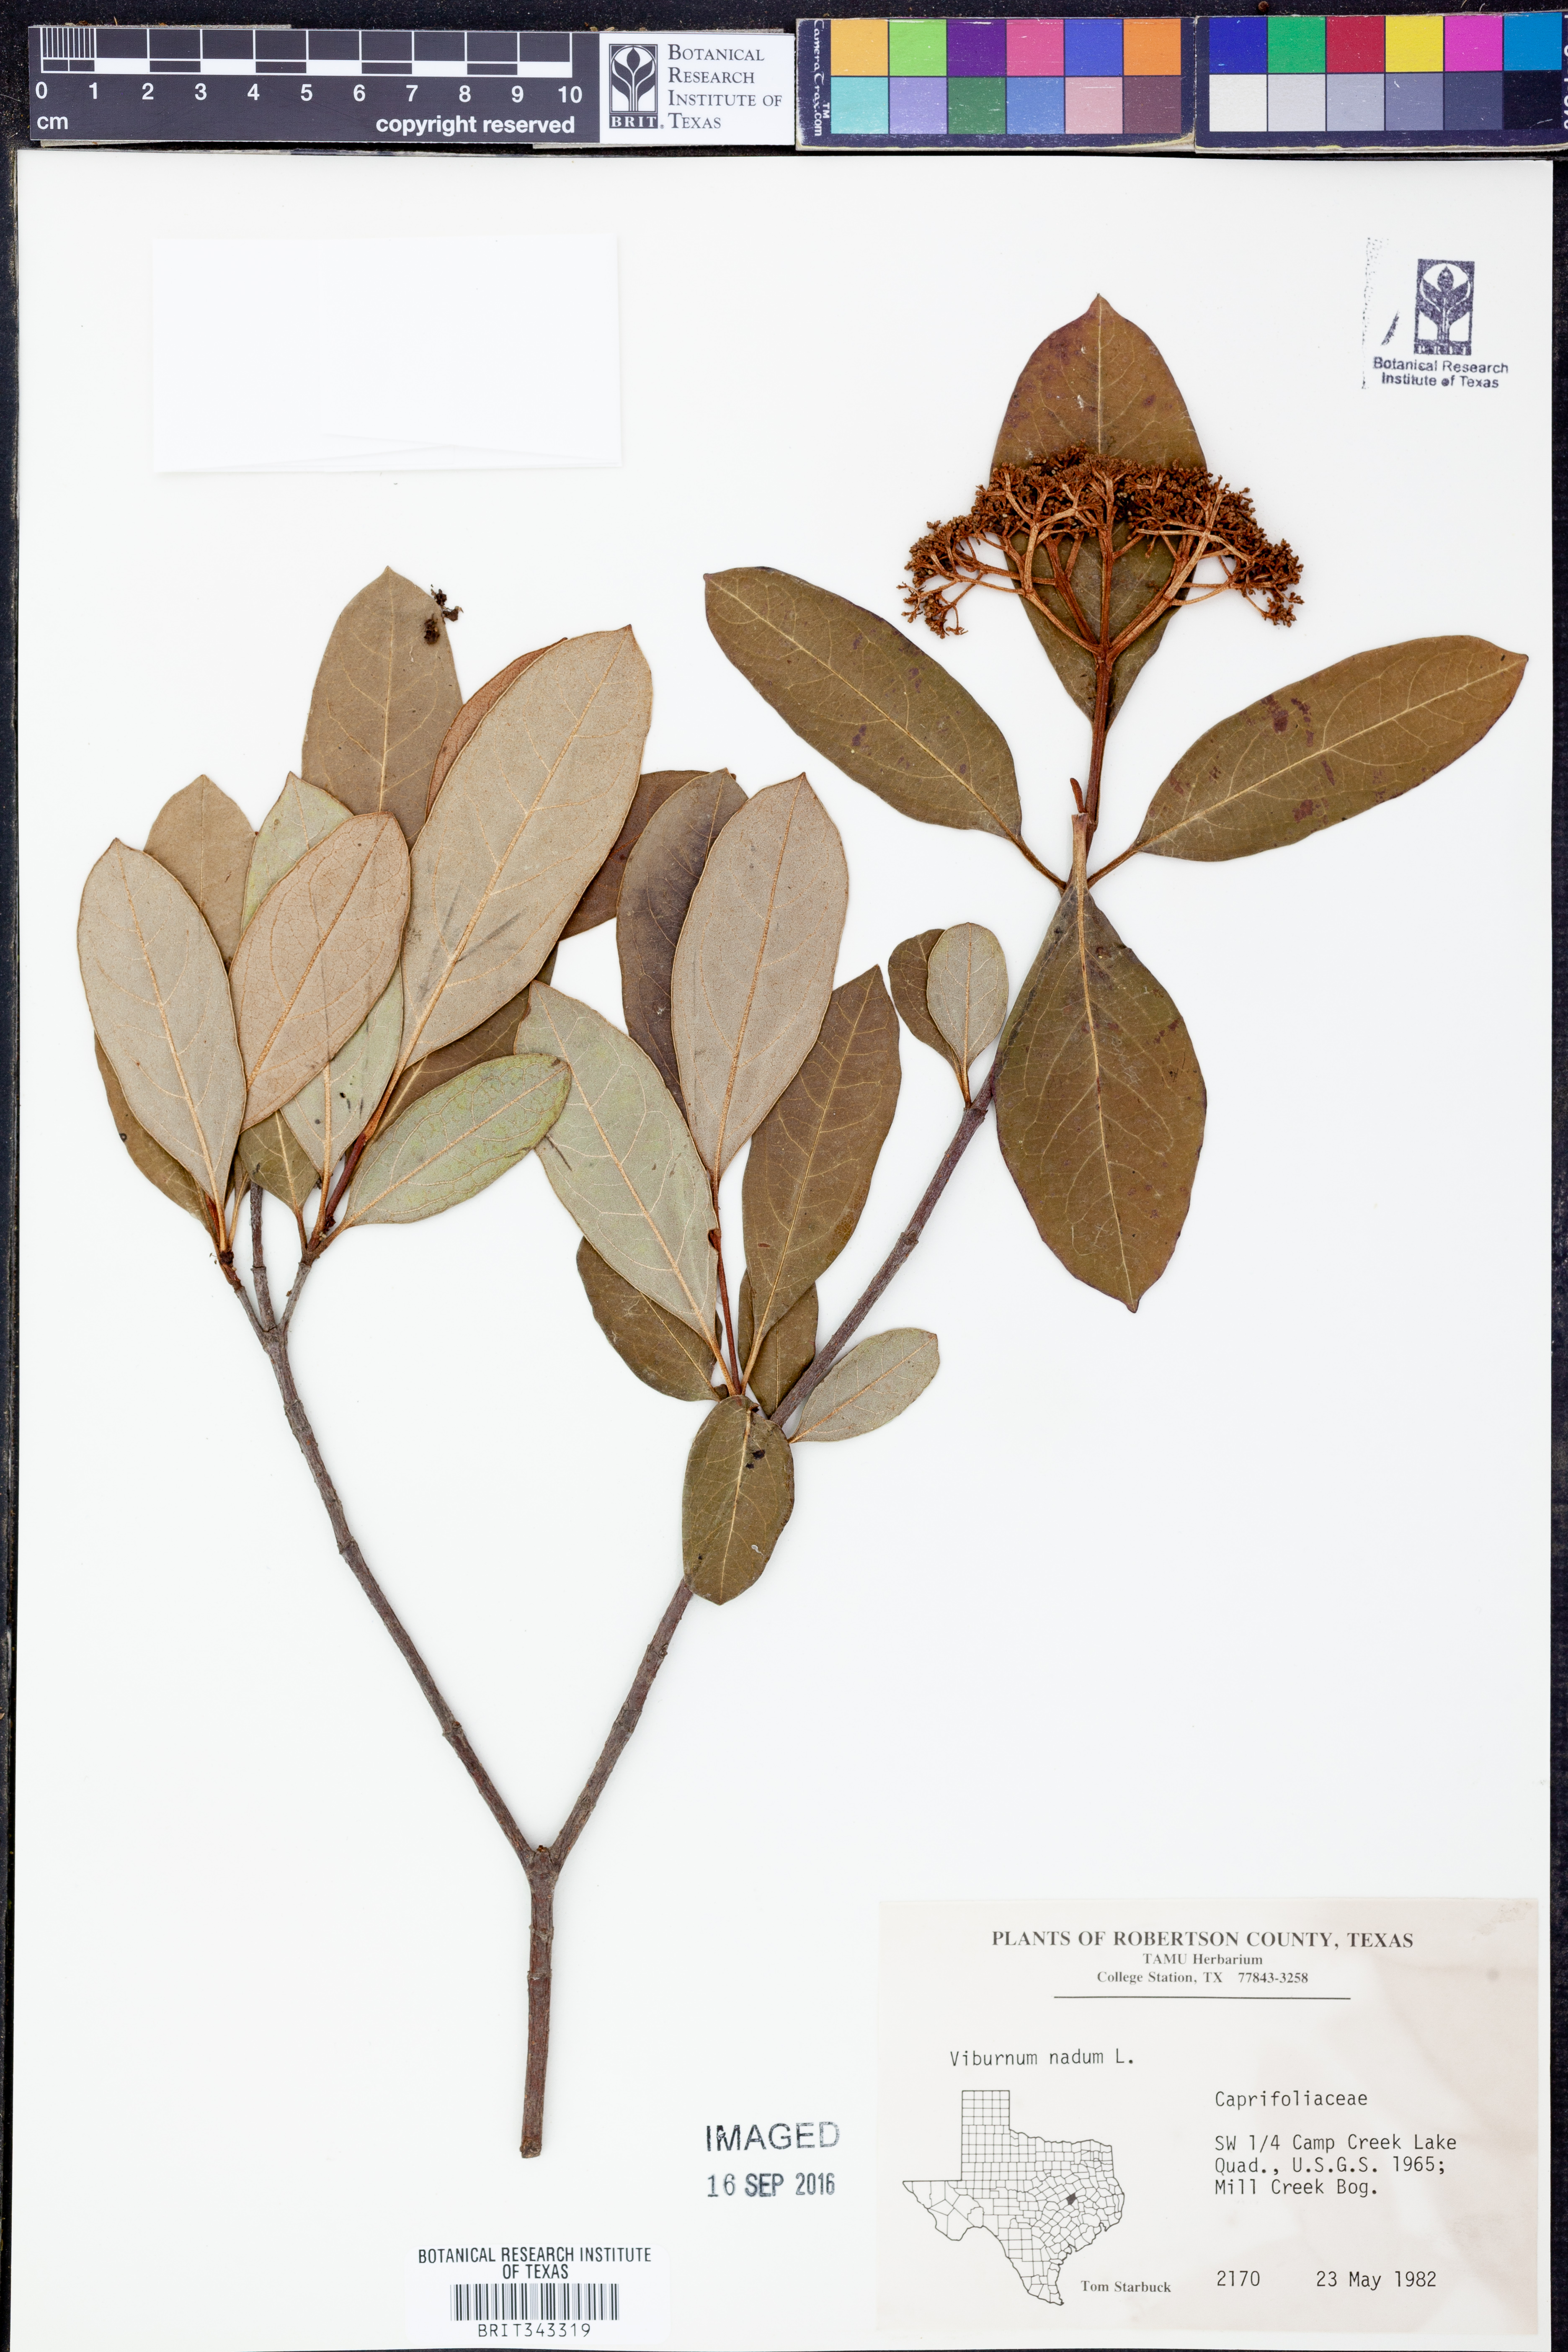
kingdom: Plantae
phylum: Tracheophyta
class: Magnoliopsida
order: Dipsacales
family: Viburnaceae
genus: Viburnum
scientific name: Viburnum nudum
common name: Possum haw
